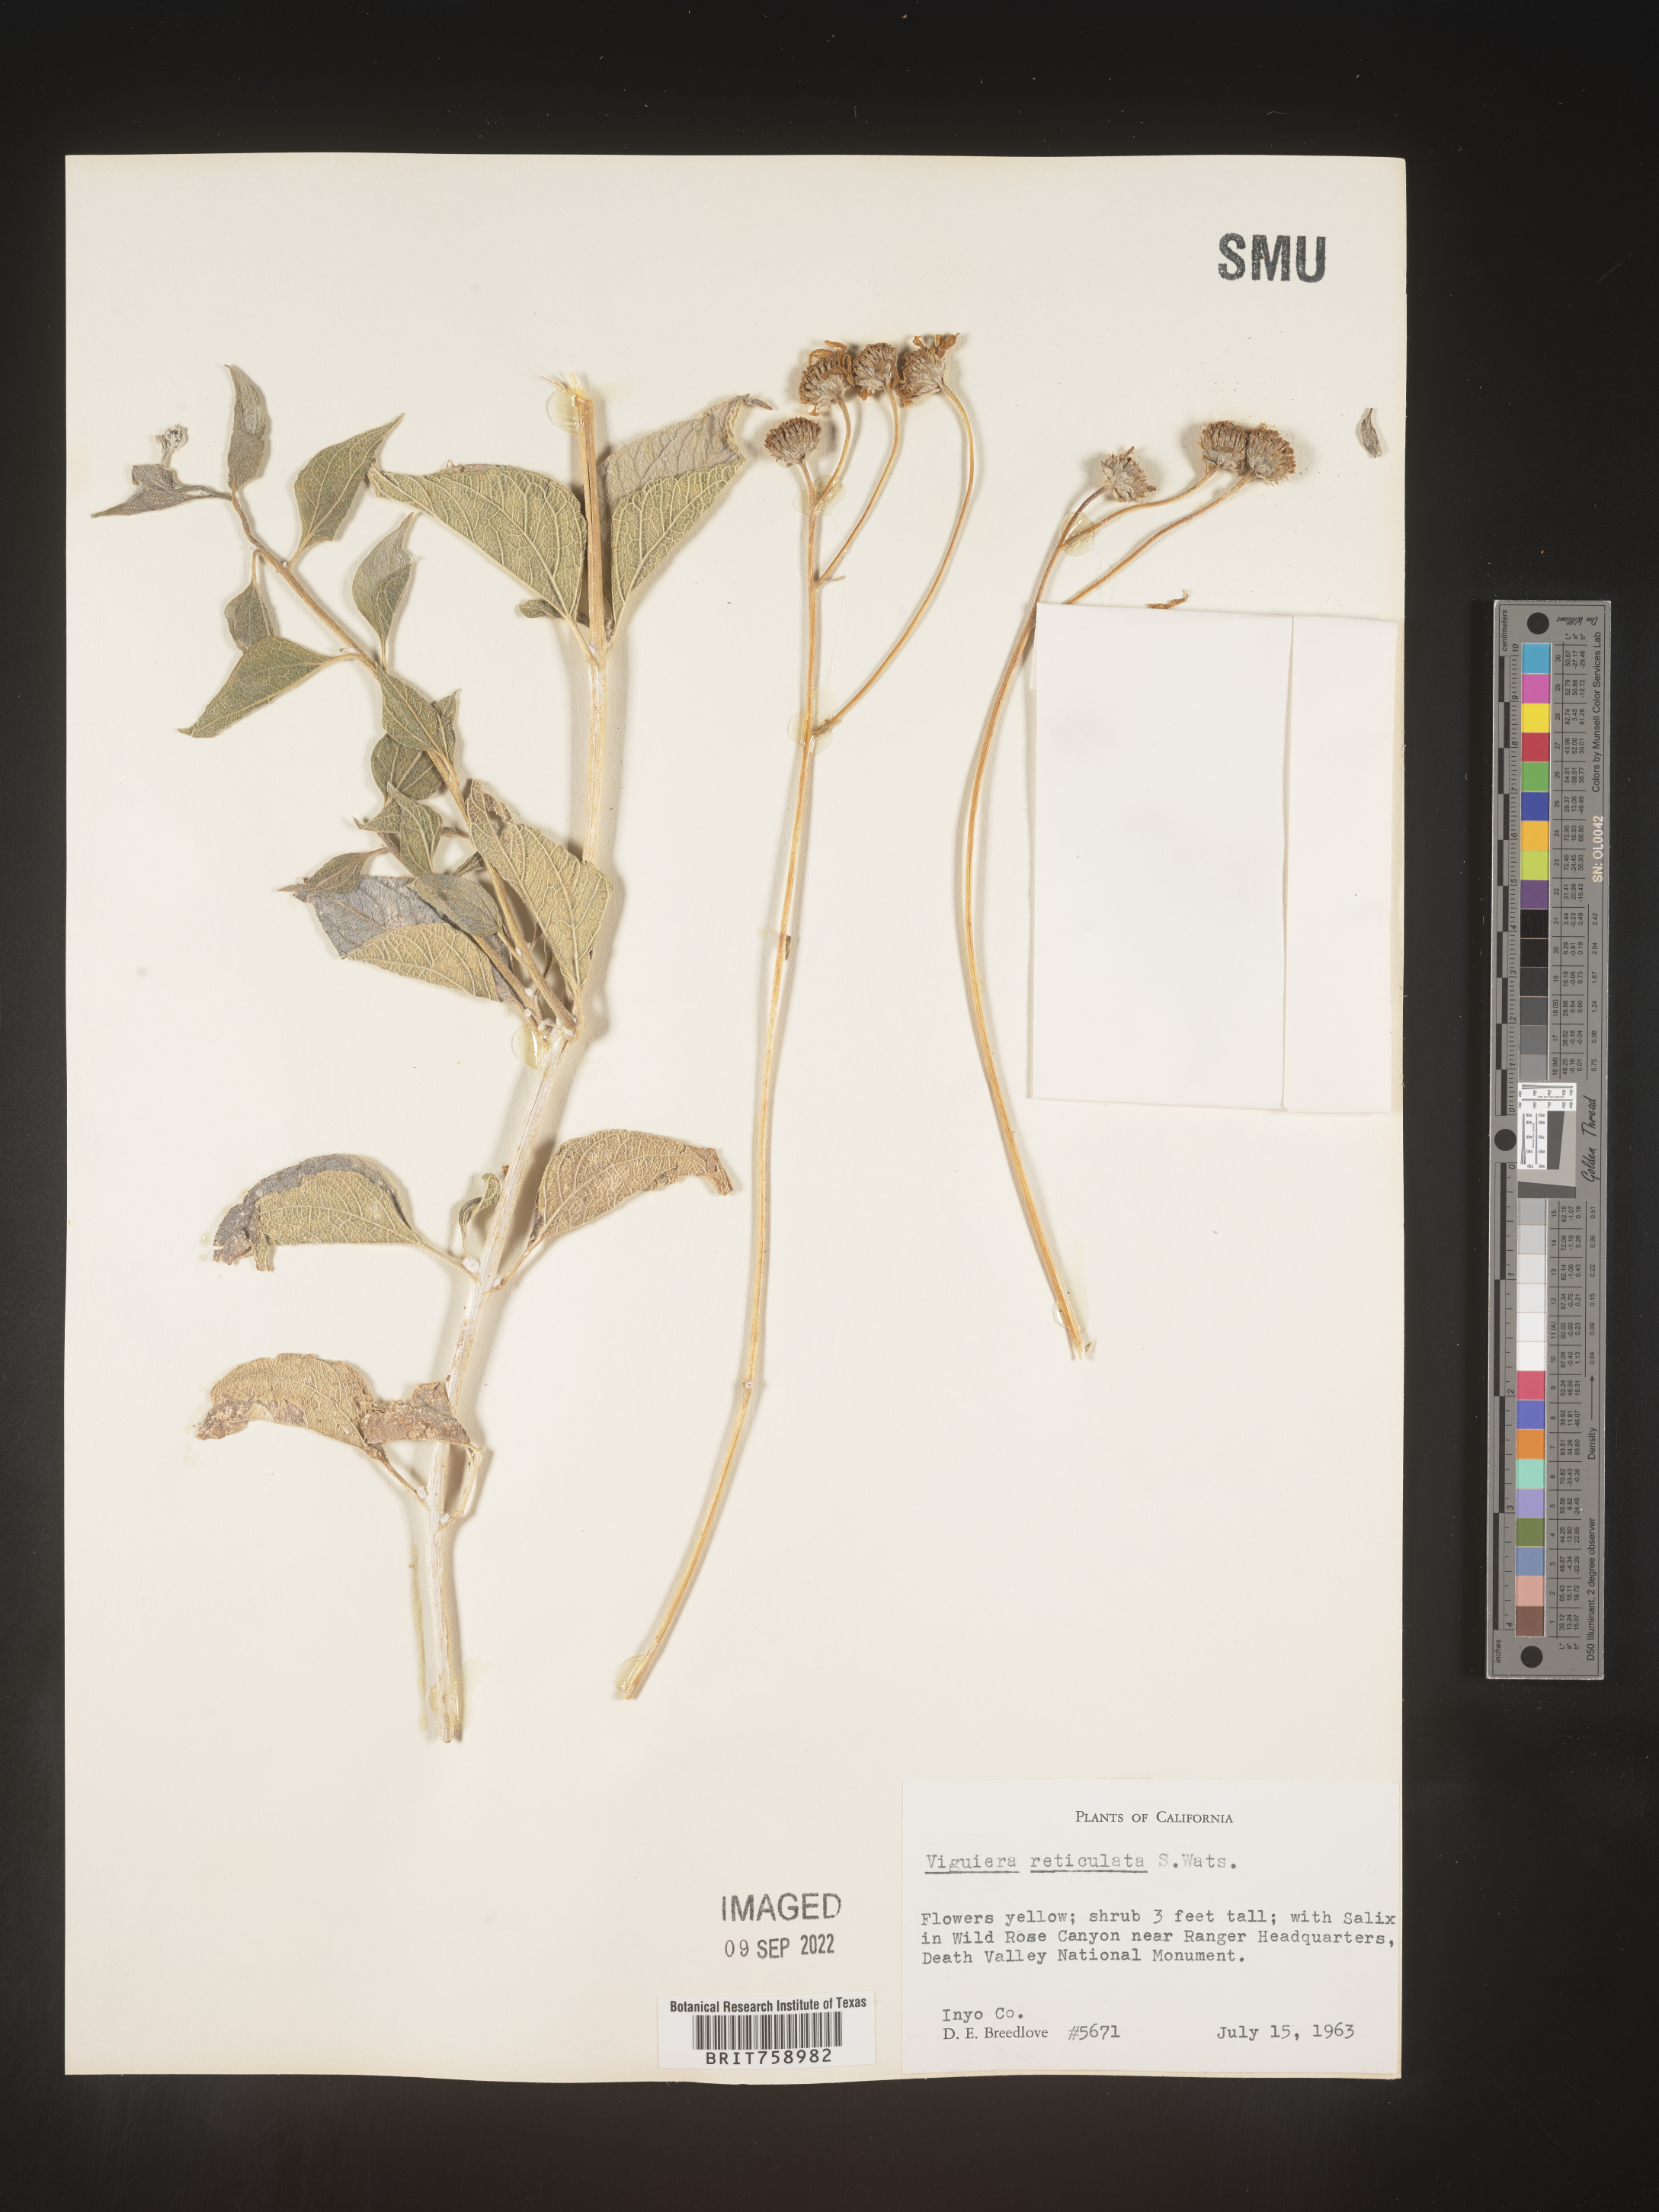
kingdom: Plantae
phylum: Tracheophyta
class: Magnoliopsida
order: Asterales
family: Asteraceae
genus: Viguiera
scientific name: Viguiera
